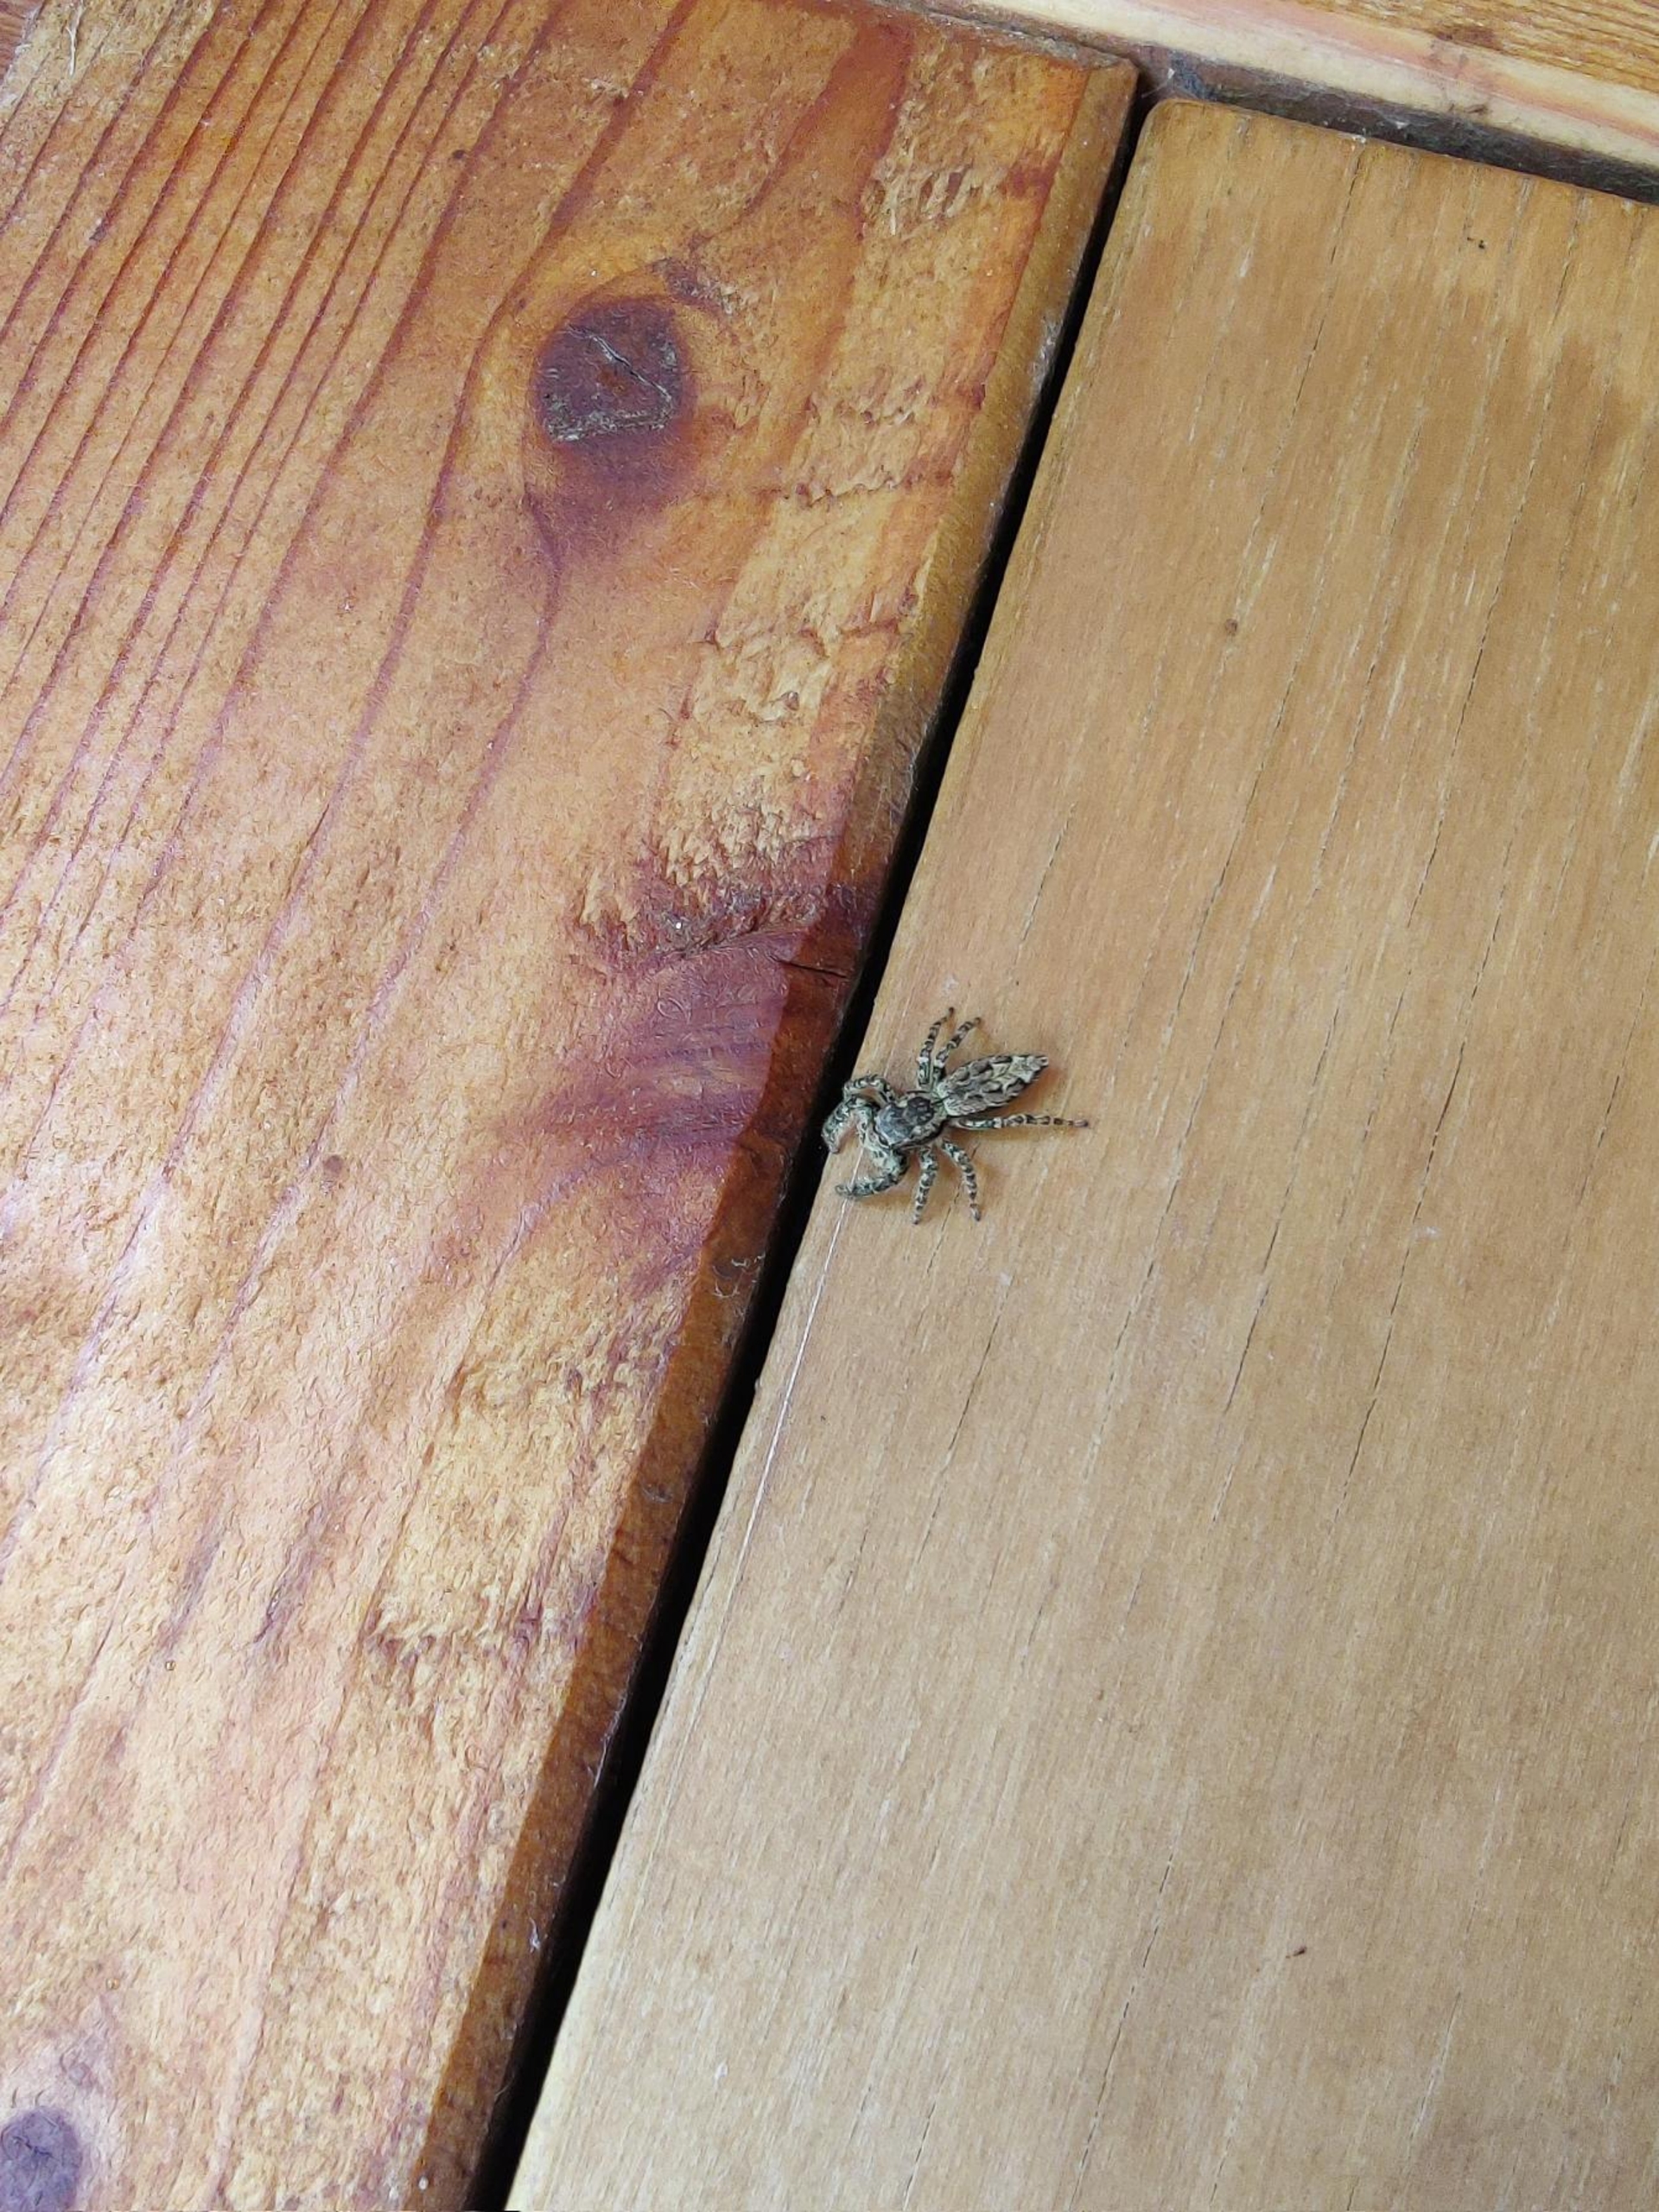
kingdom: Animalia
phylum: Arthropoda
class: Arachnida
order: Araneae
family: Salticidae
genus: Marpissa
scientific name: Marpissa muscosa
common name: Stor springedderkop
